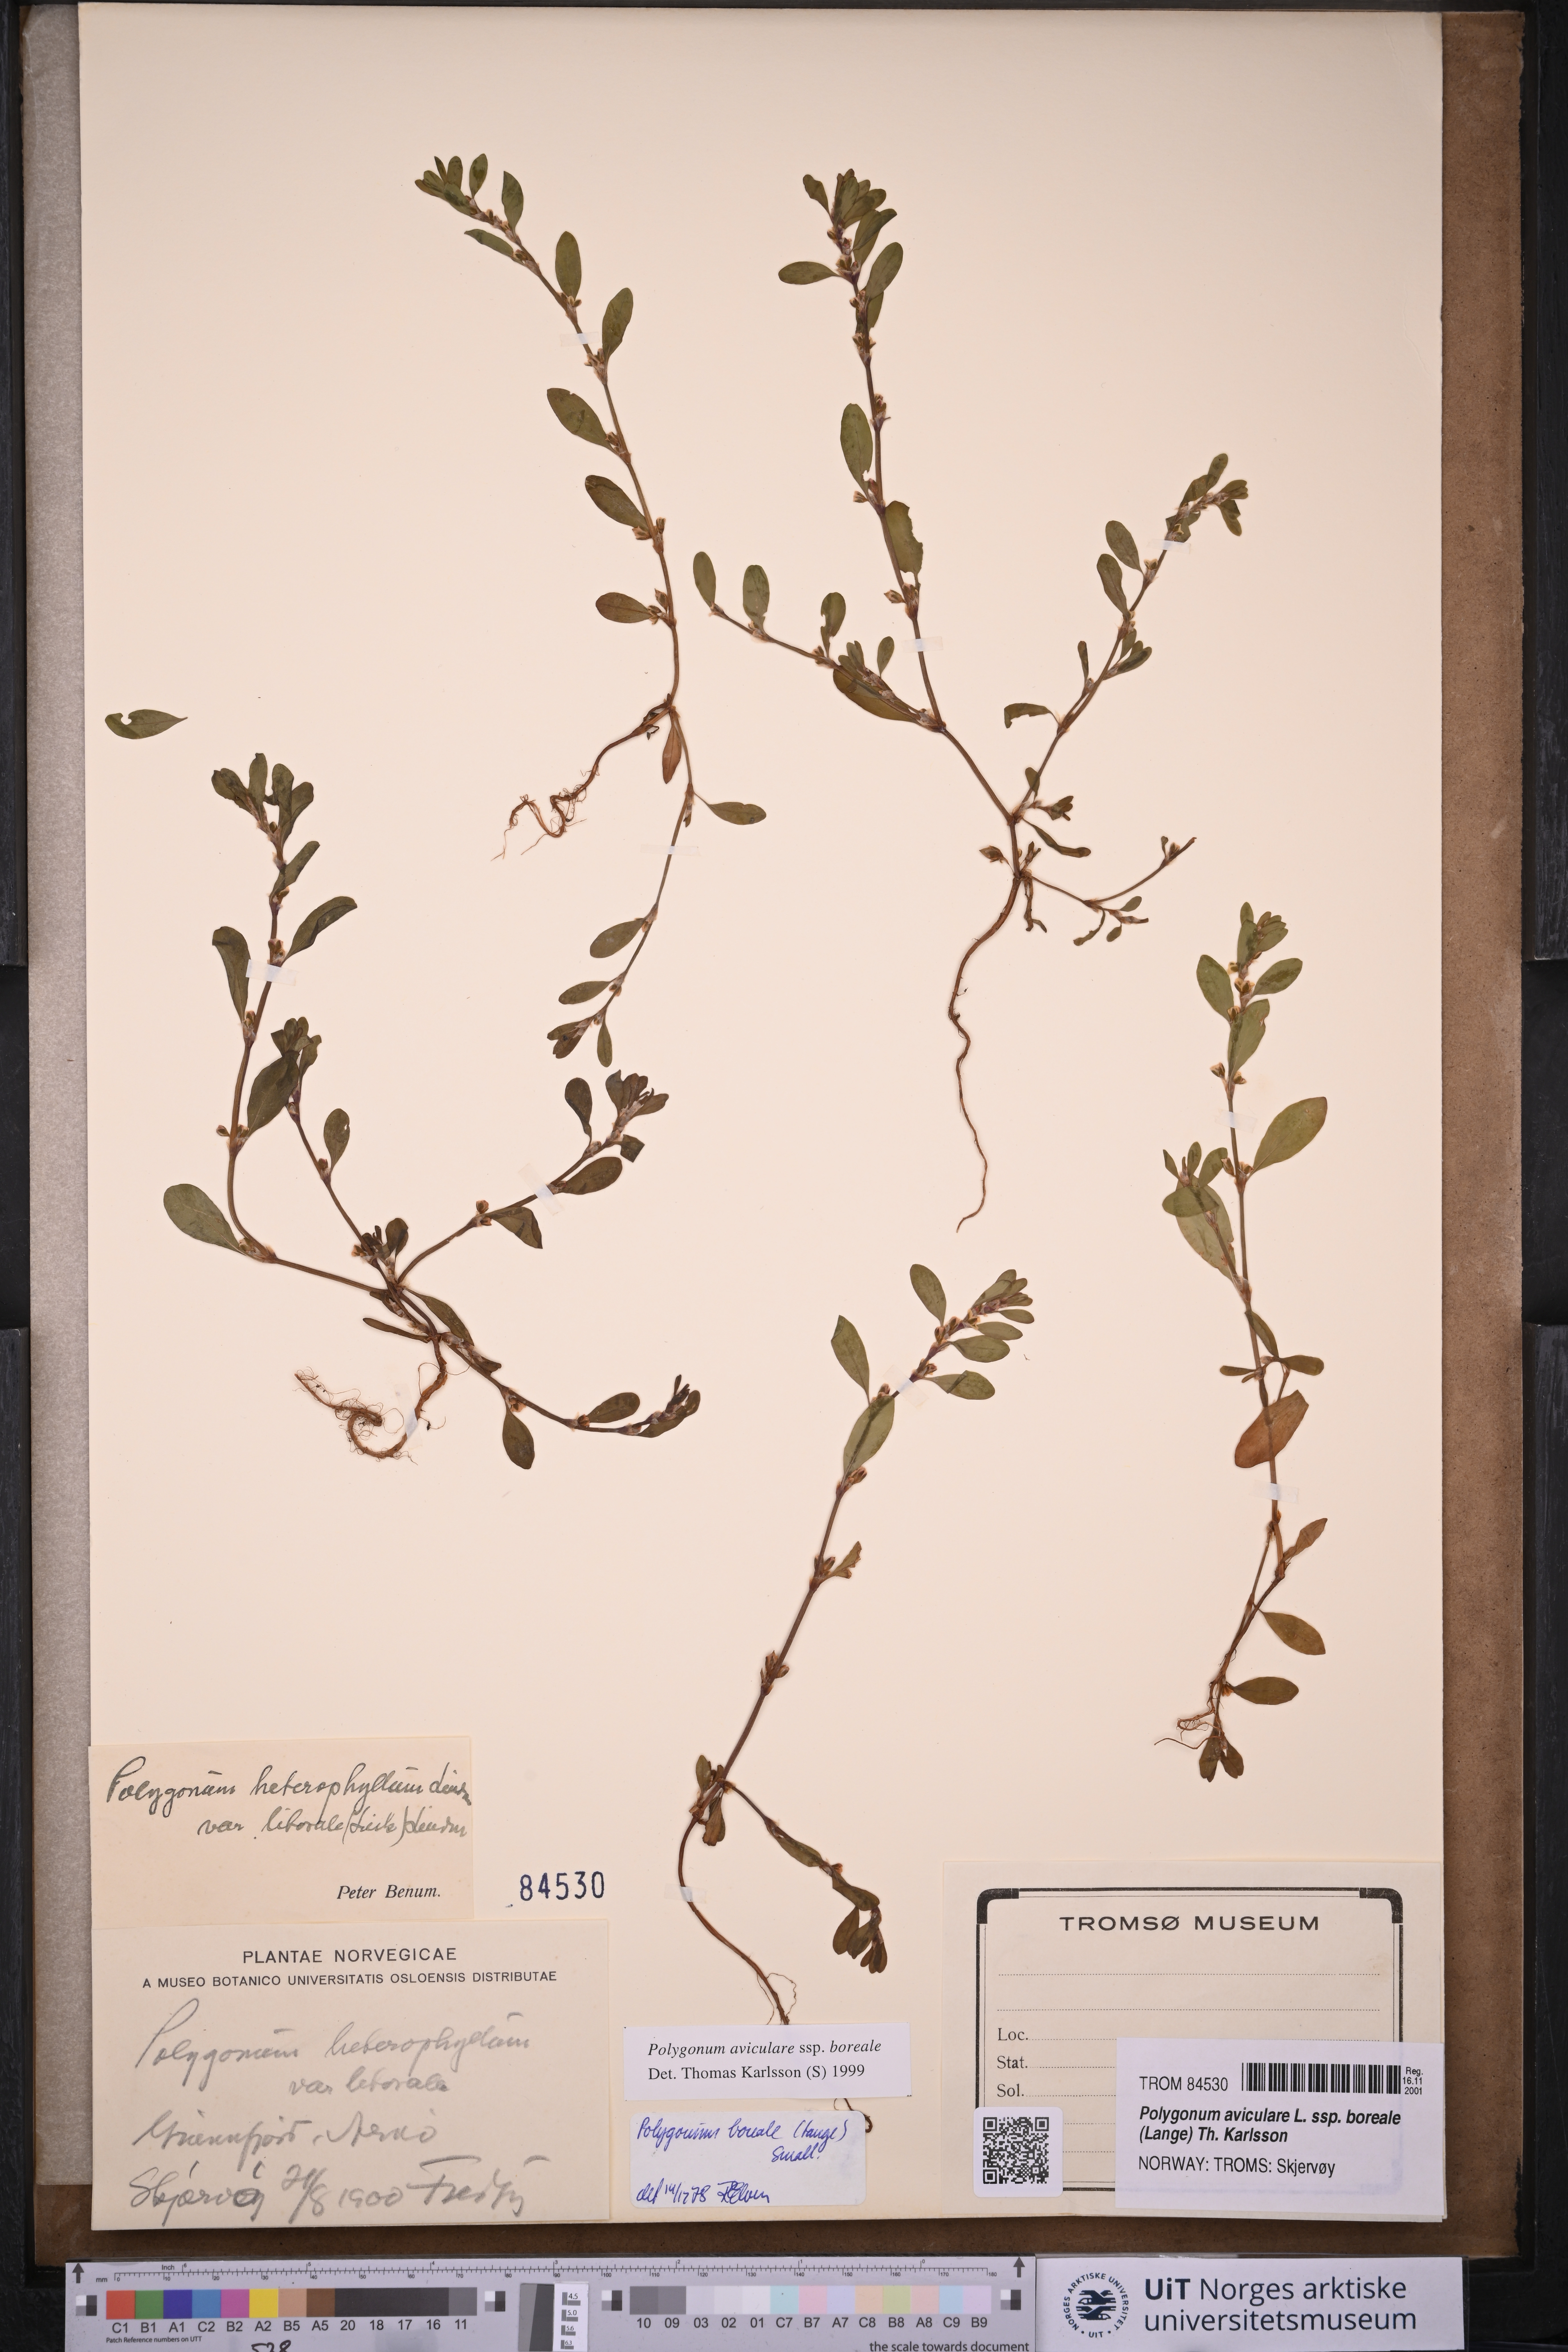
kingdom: Plantae
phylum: Tracheophyta
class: Magnoliopsida
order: Caryophyllales
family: Polygonaceae
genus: Polygonum
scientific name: Polygonum boreale
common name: Northern knotgrass
